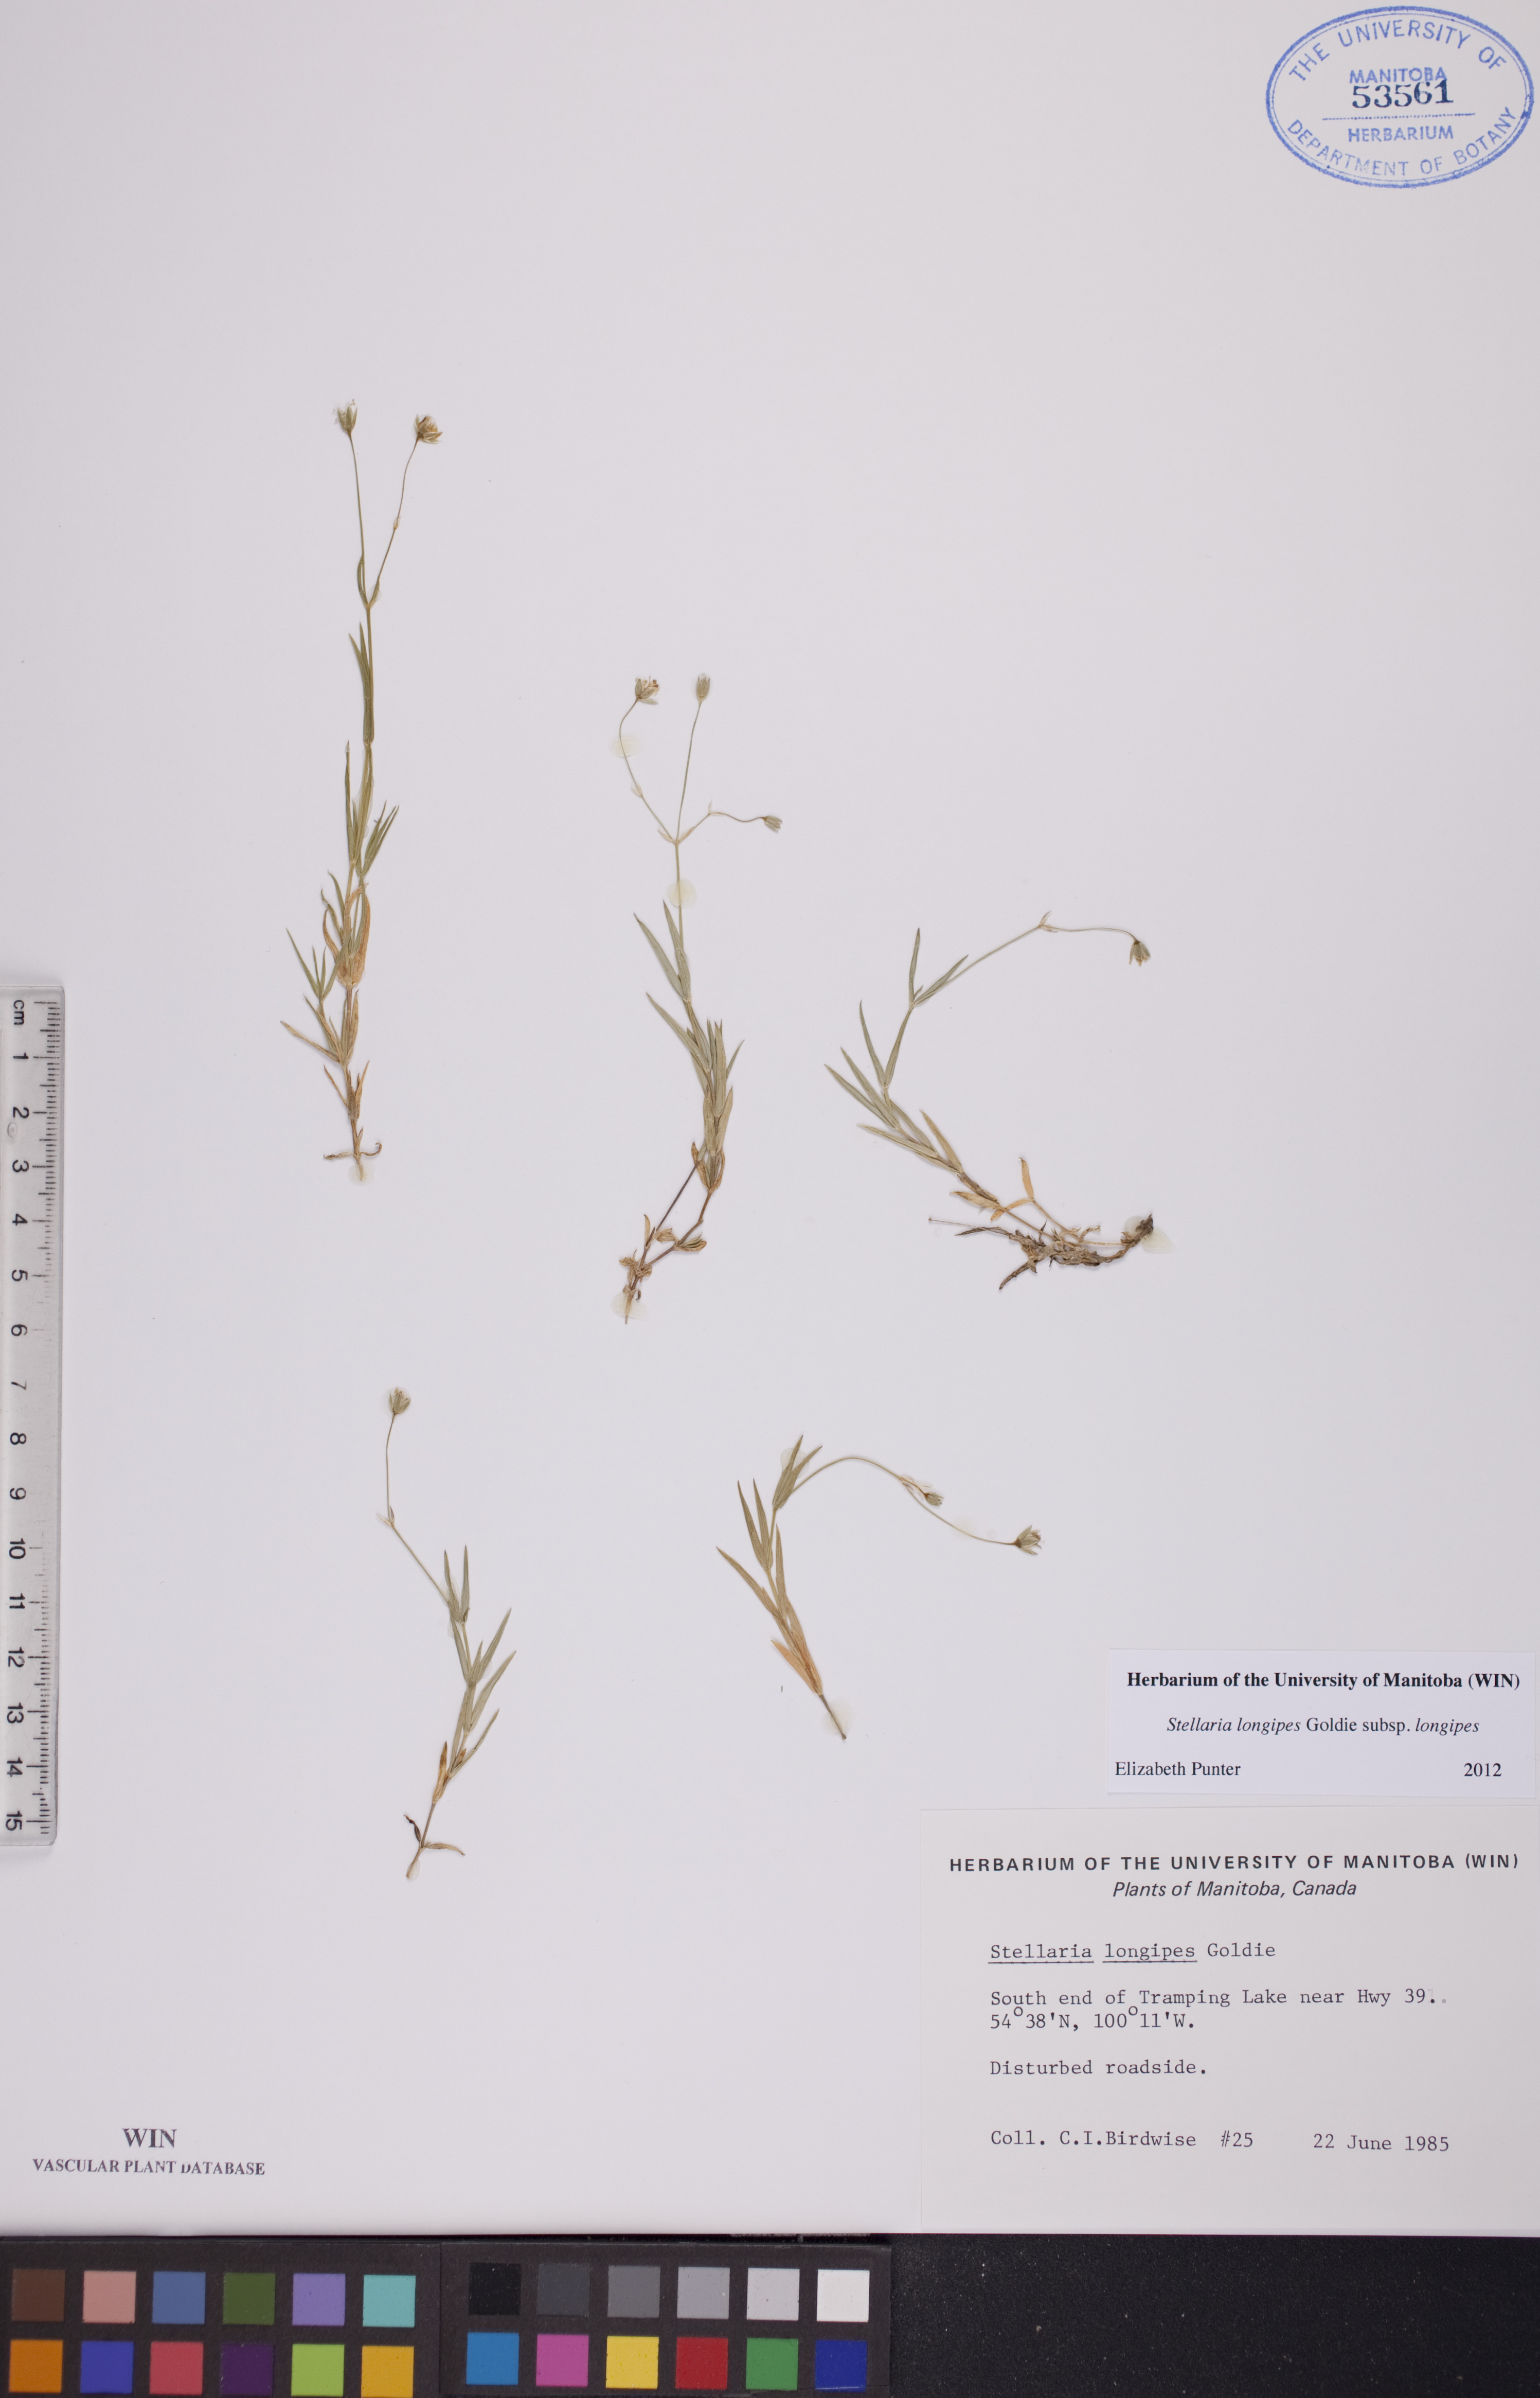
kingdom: Plantae
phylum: Tracheophyta
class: Magnoliopsida
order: Caryophyllales
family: Caryophyllaceae
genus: Stellaria
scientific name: Stellaria longipes
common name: Goldie's starwort
